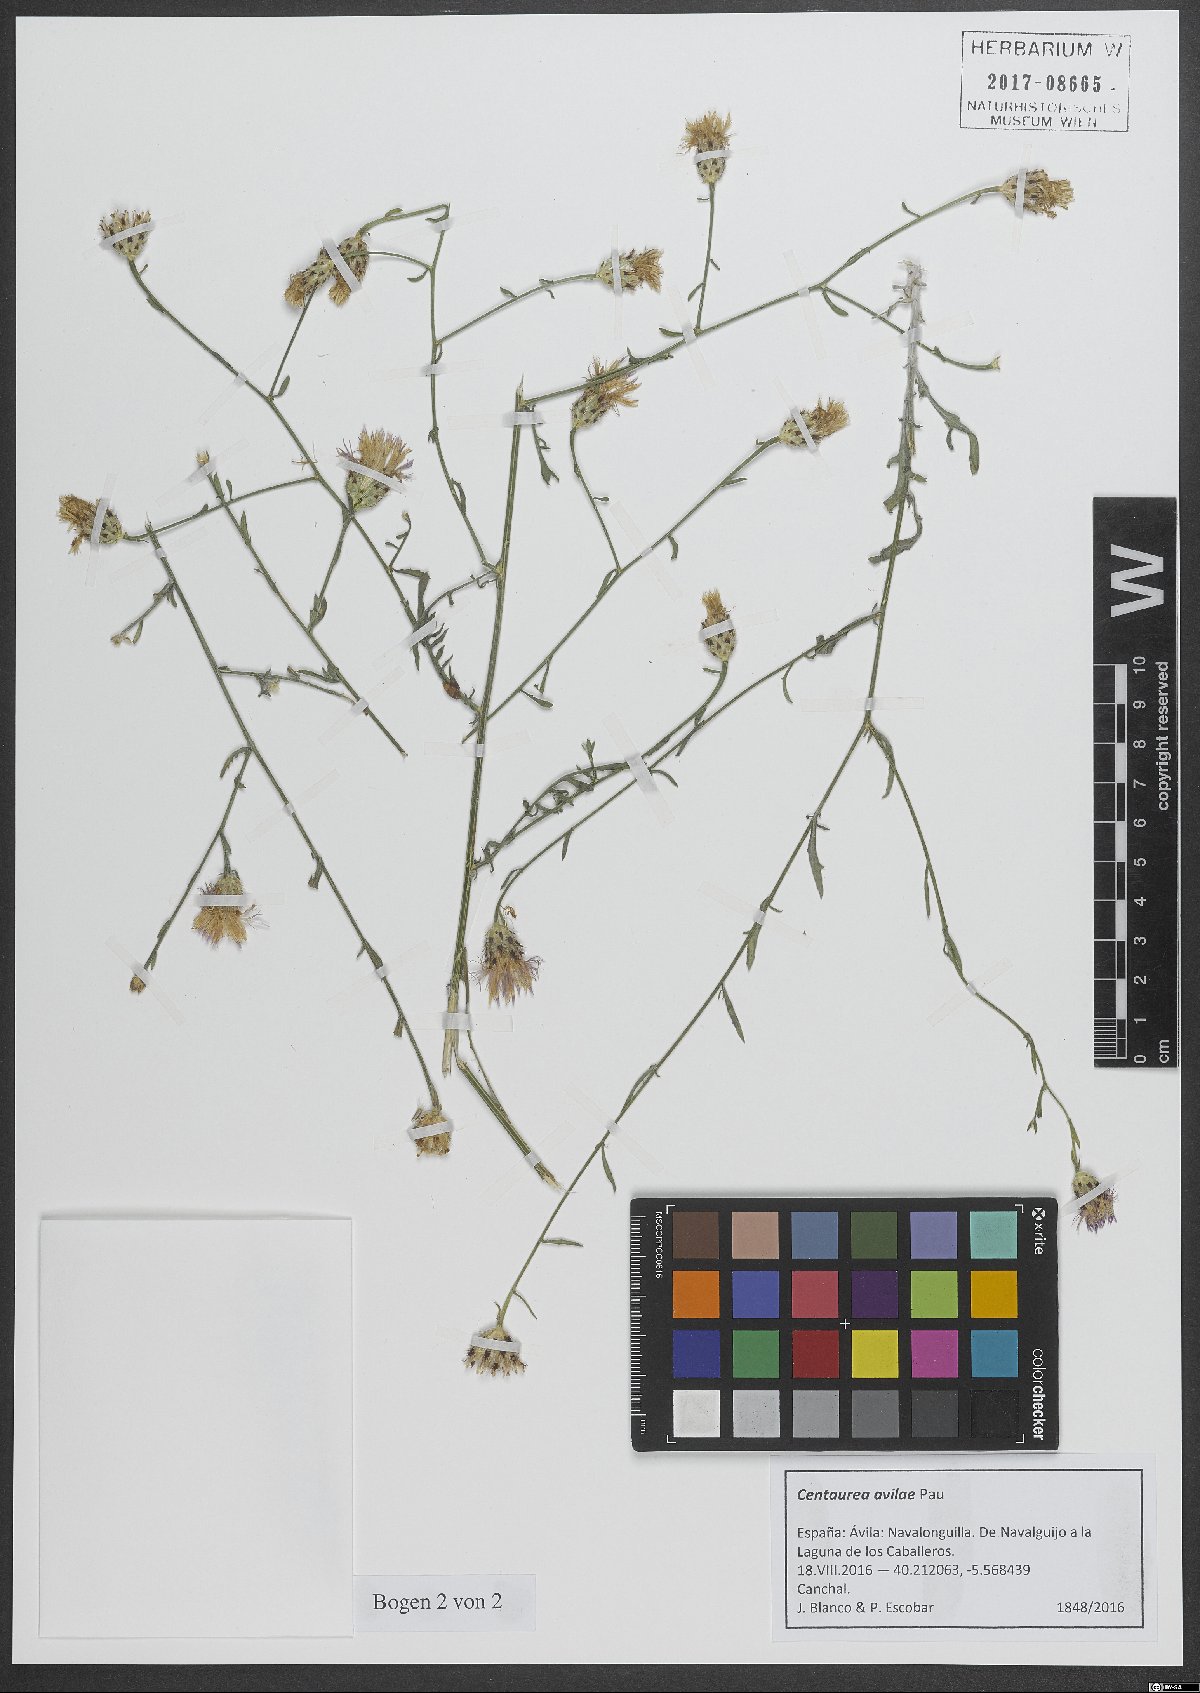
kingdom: Plantae
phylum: Tracheophyta
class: Magnoliopsida
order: Asterales
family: Asteraceae
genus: Centaurea
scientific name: Centaurea avilae
